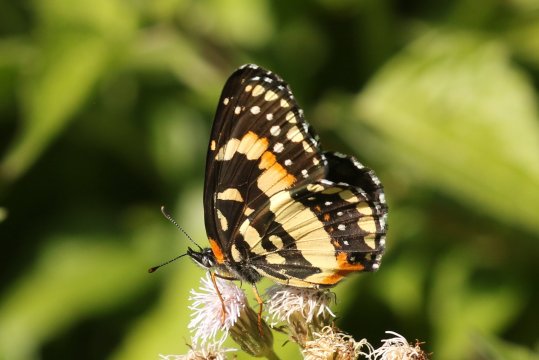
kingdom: Animalia
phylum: Arthropoda
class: Insecta
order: Lepidoptera
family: Nymphalidae
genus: Chlosyne
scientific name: Chlosyne lacinia
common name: Bordered Patch
